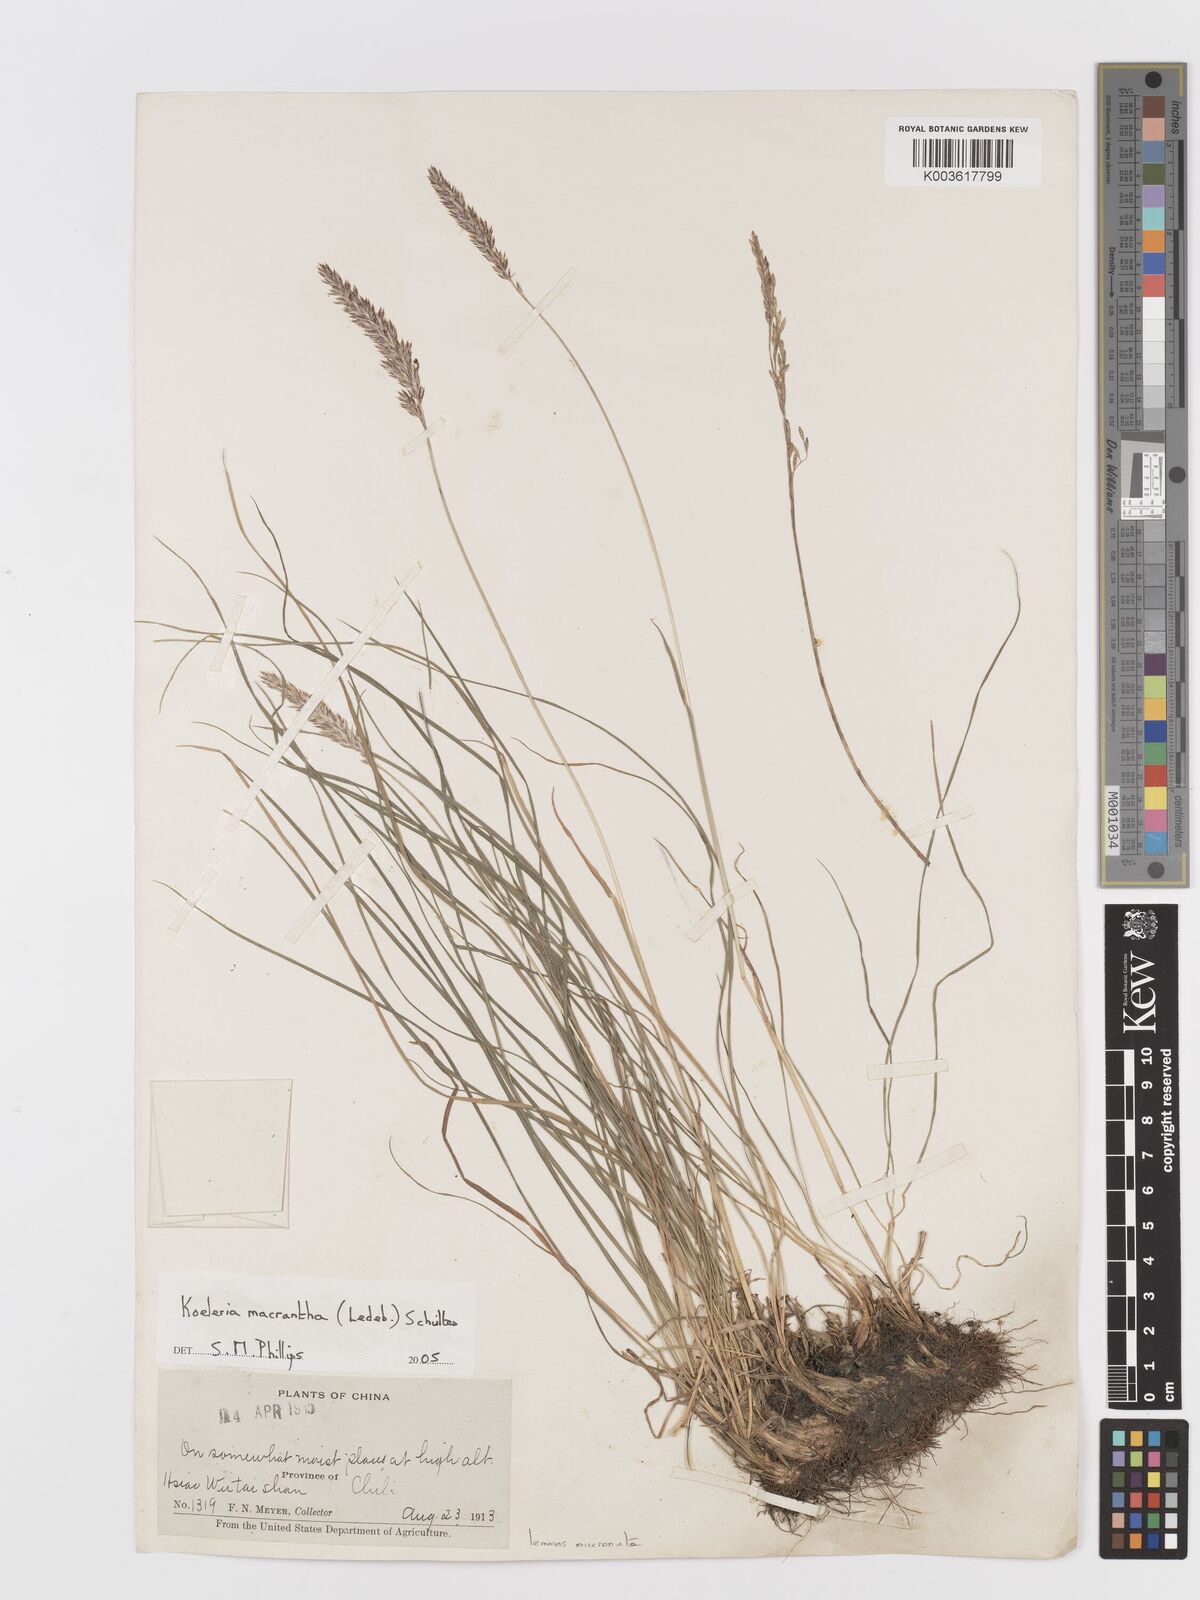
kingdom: Plantae
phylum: Tracheophyta
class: Liliopsida
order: Poales
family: Poaceae
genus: Koeleria
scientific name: Koeleria macrantha
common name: Crested hair-grass
